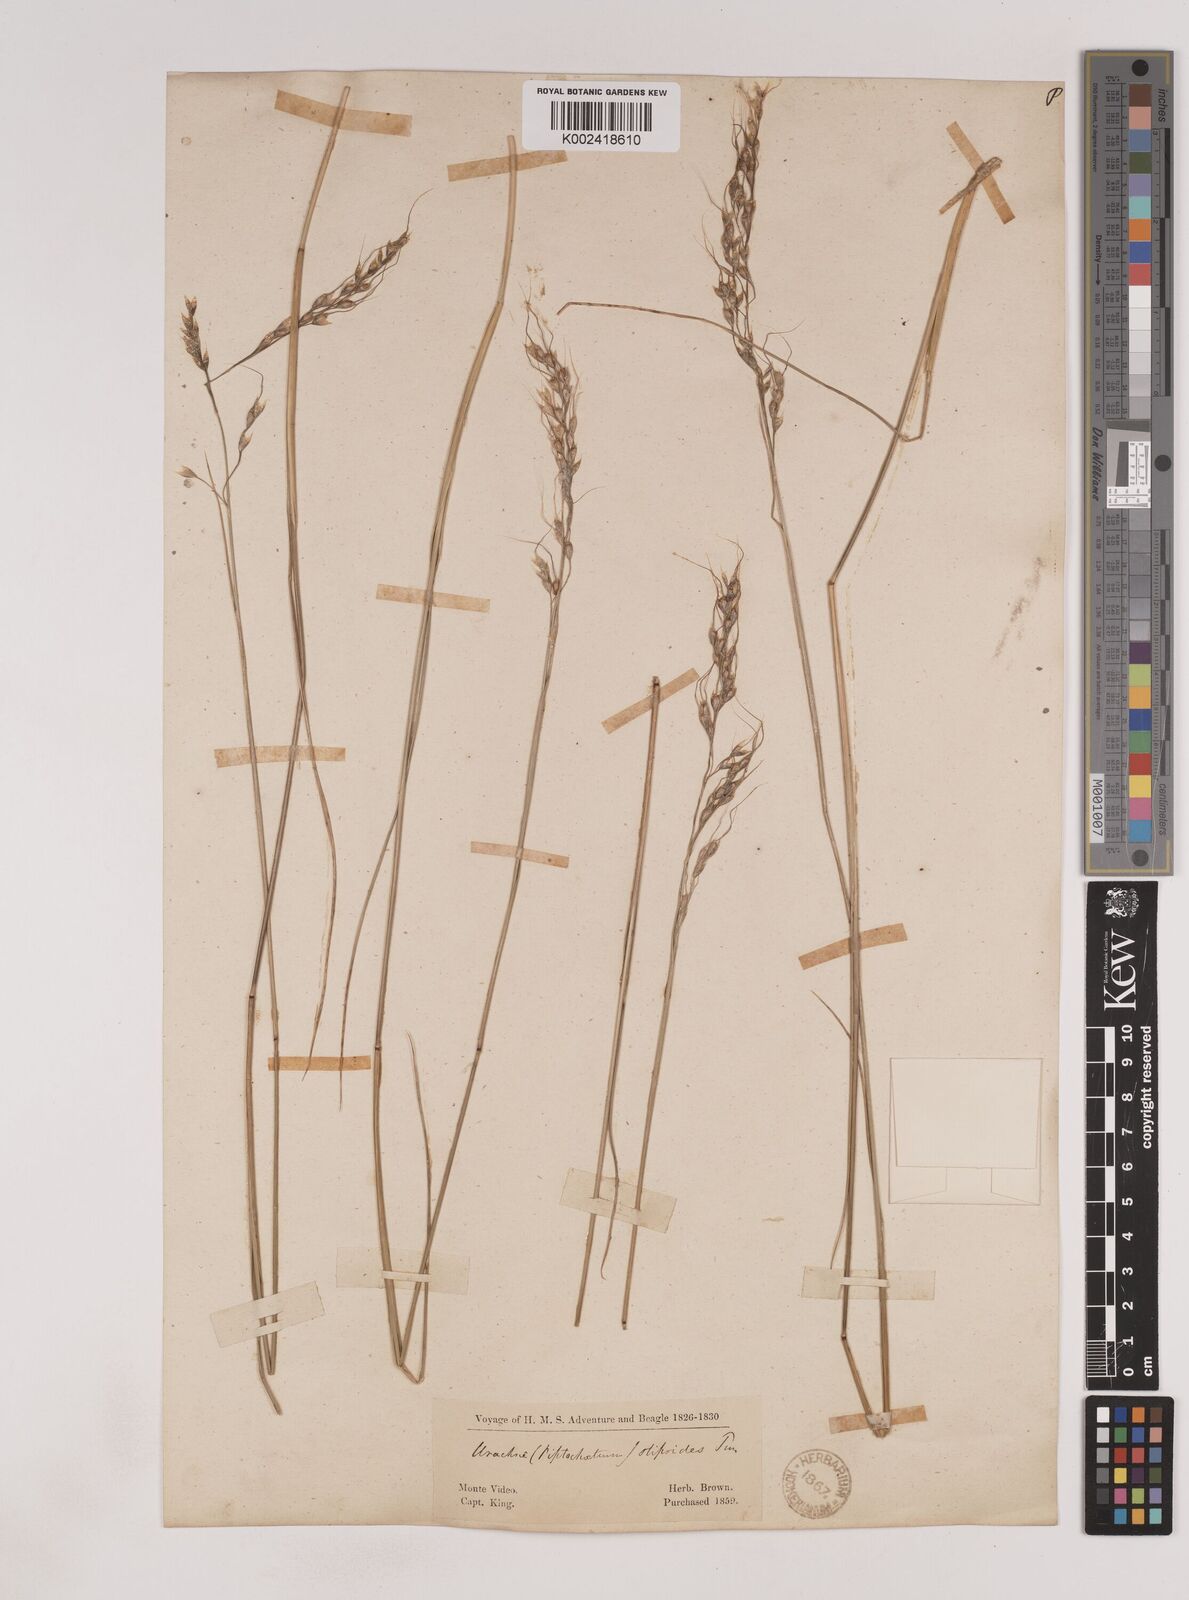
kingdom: Plantae
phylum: Tracheophyta
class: Liliopsida
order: Poales
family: Poaceae
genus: Piptochaetium
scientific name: Piptochaetium
